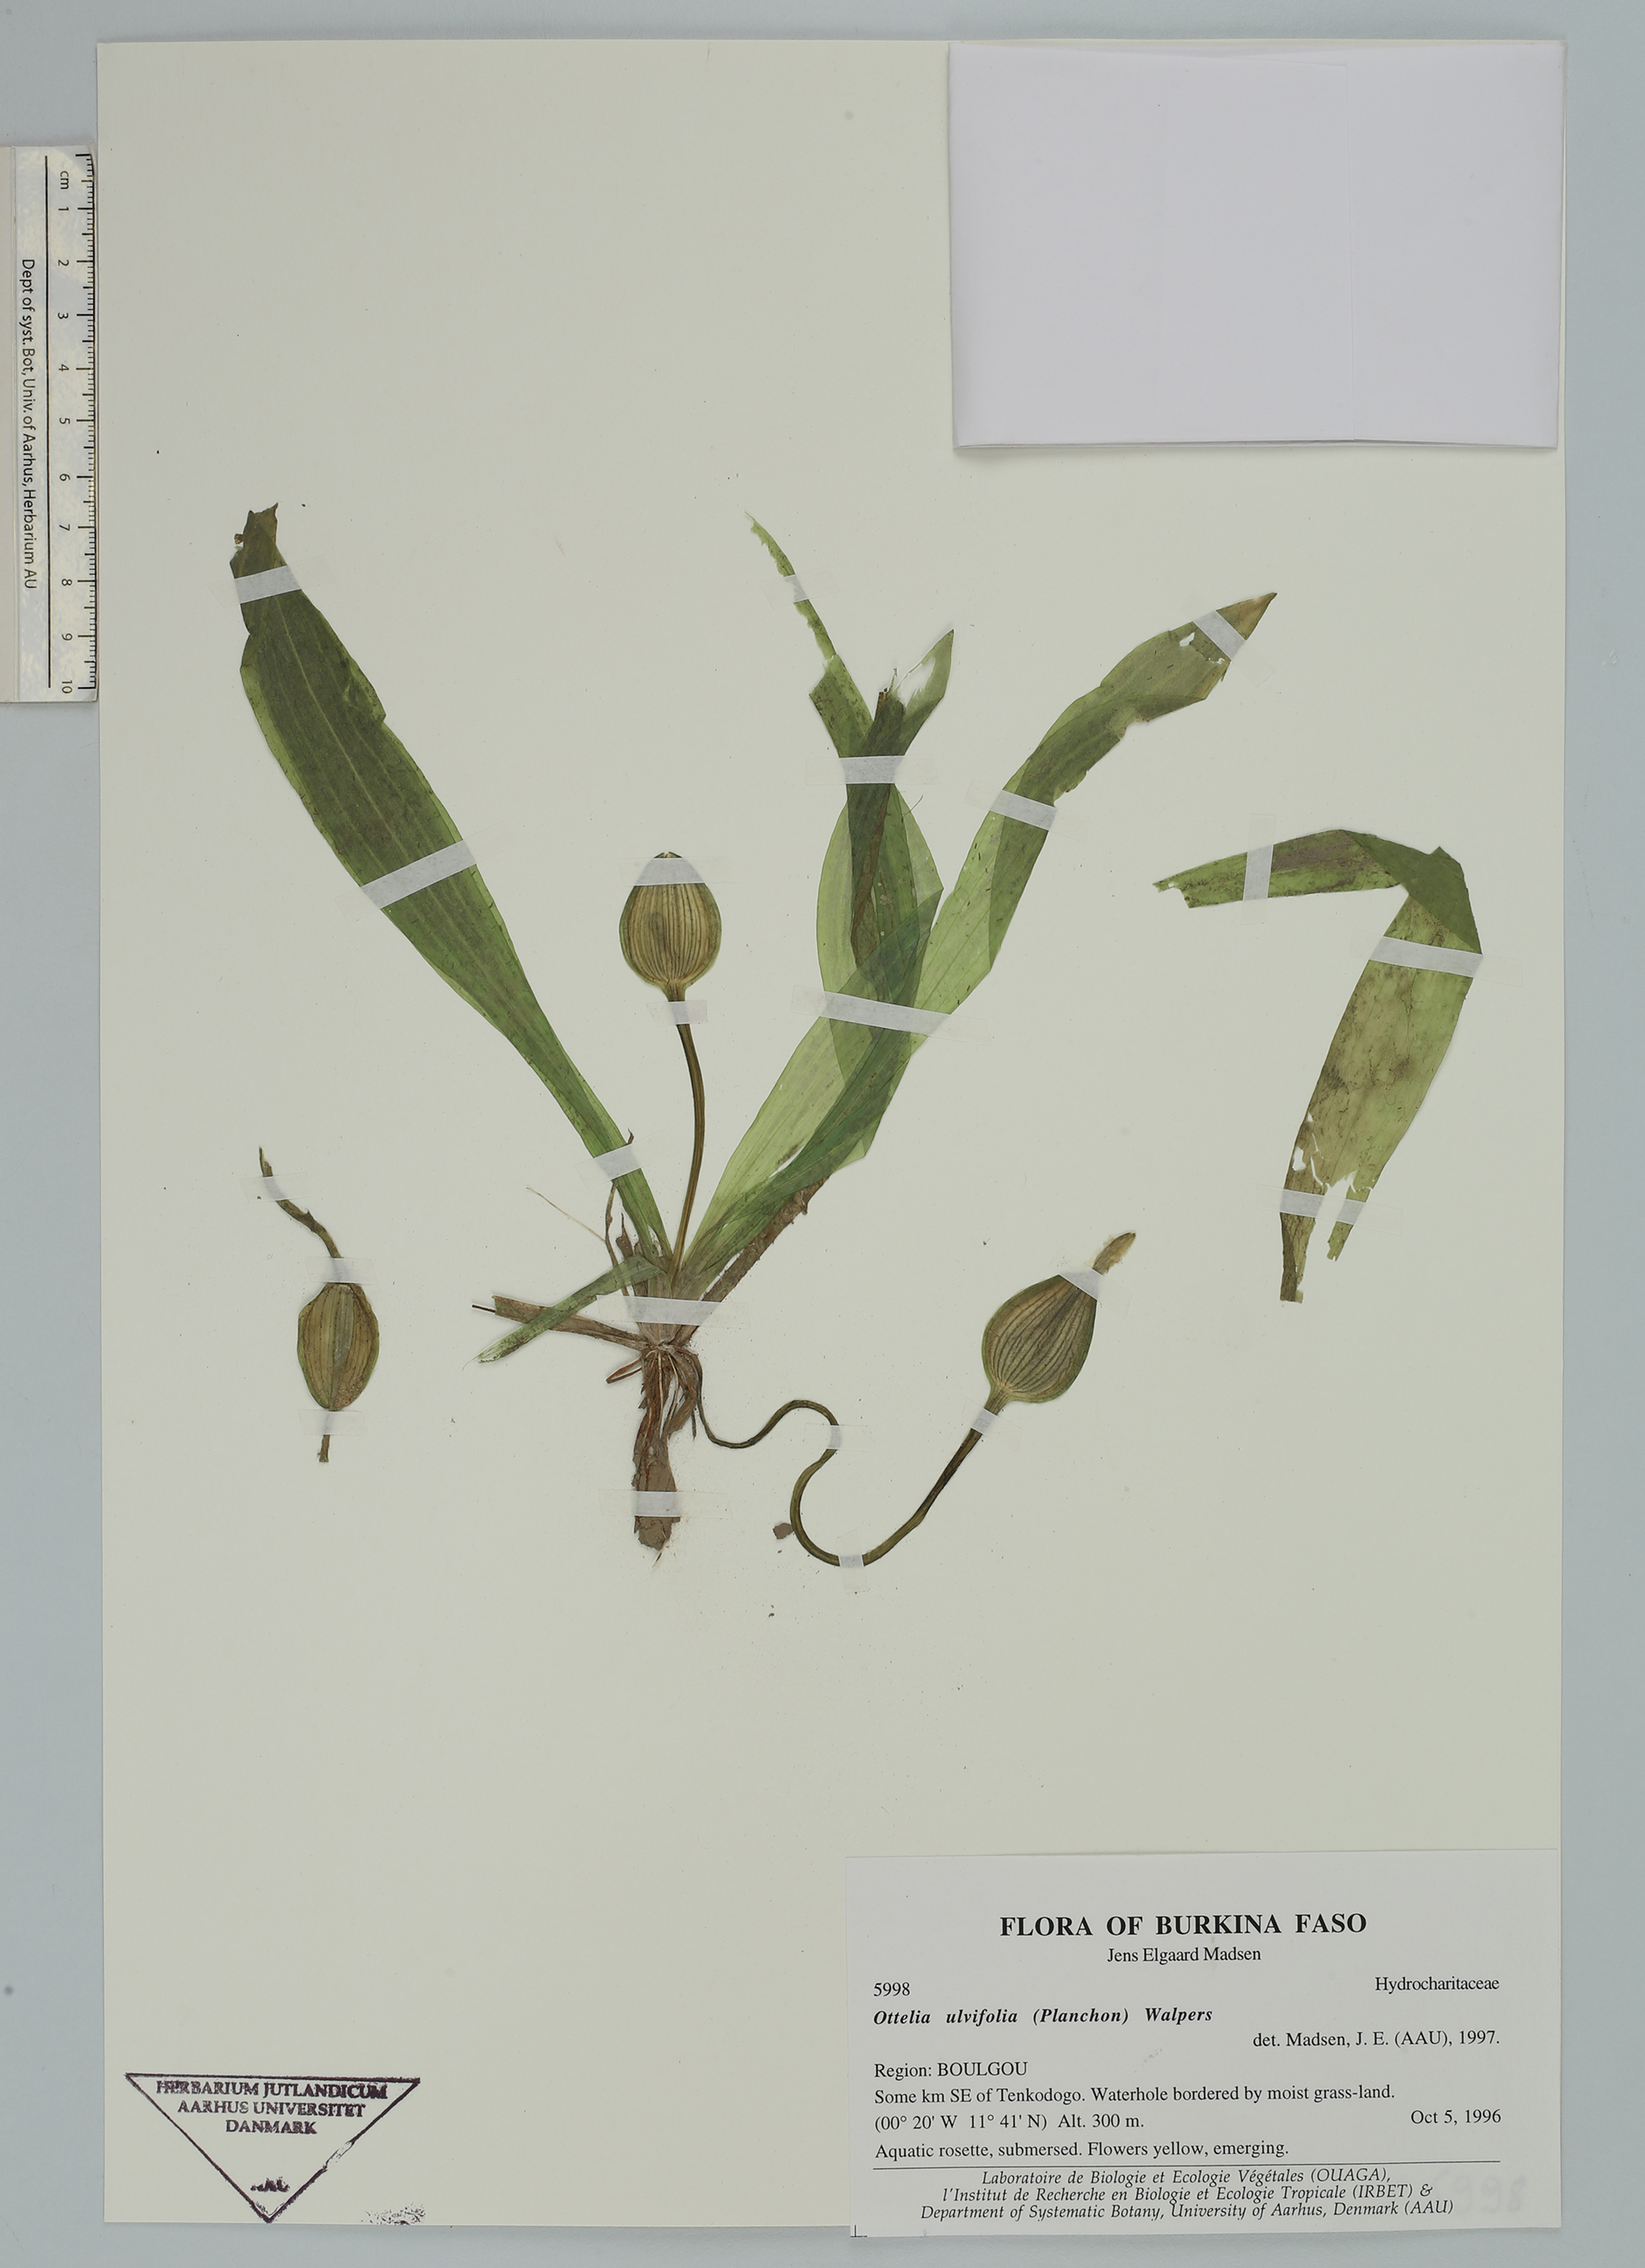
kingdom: Plantae
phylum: Tracheophyta
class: Liliopsida
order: Alismatales
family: Hydrocharitaceae
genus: Ottelia
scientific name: Ottelia ulvifolia
